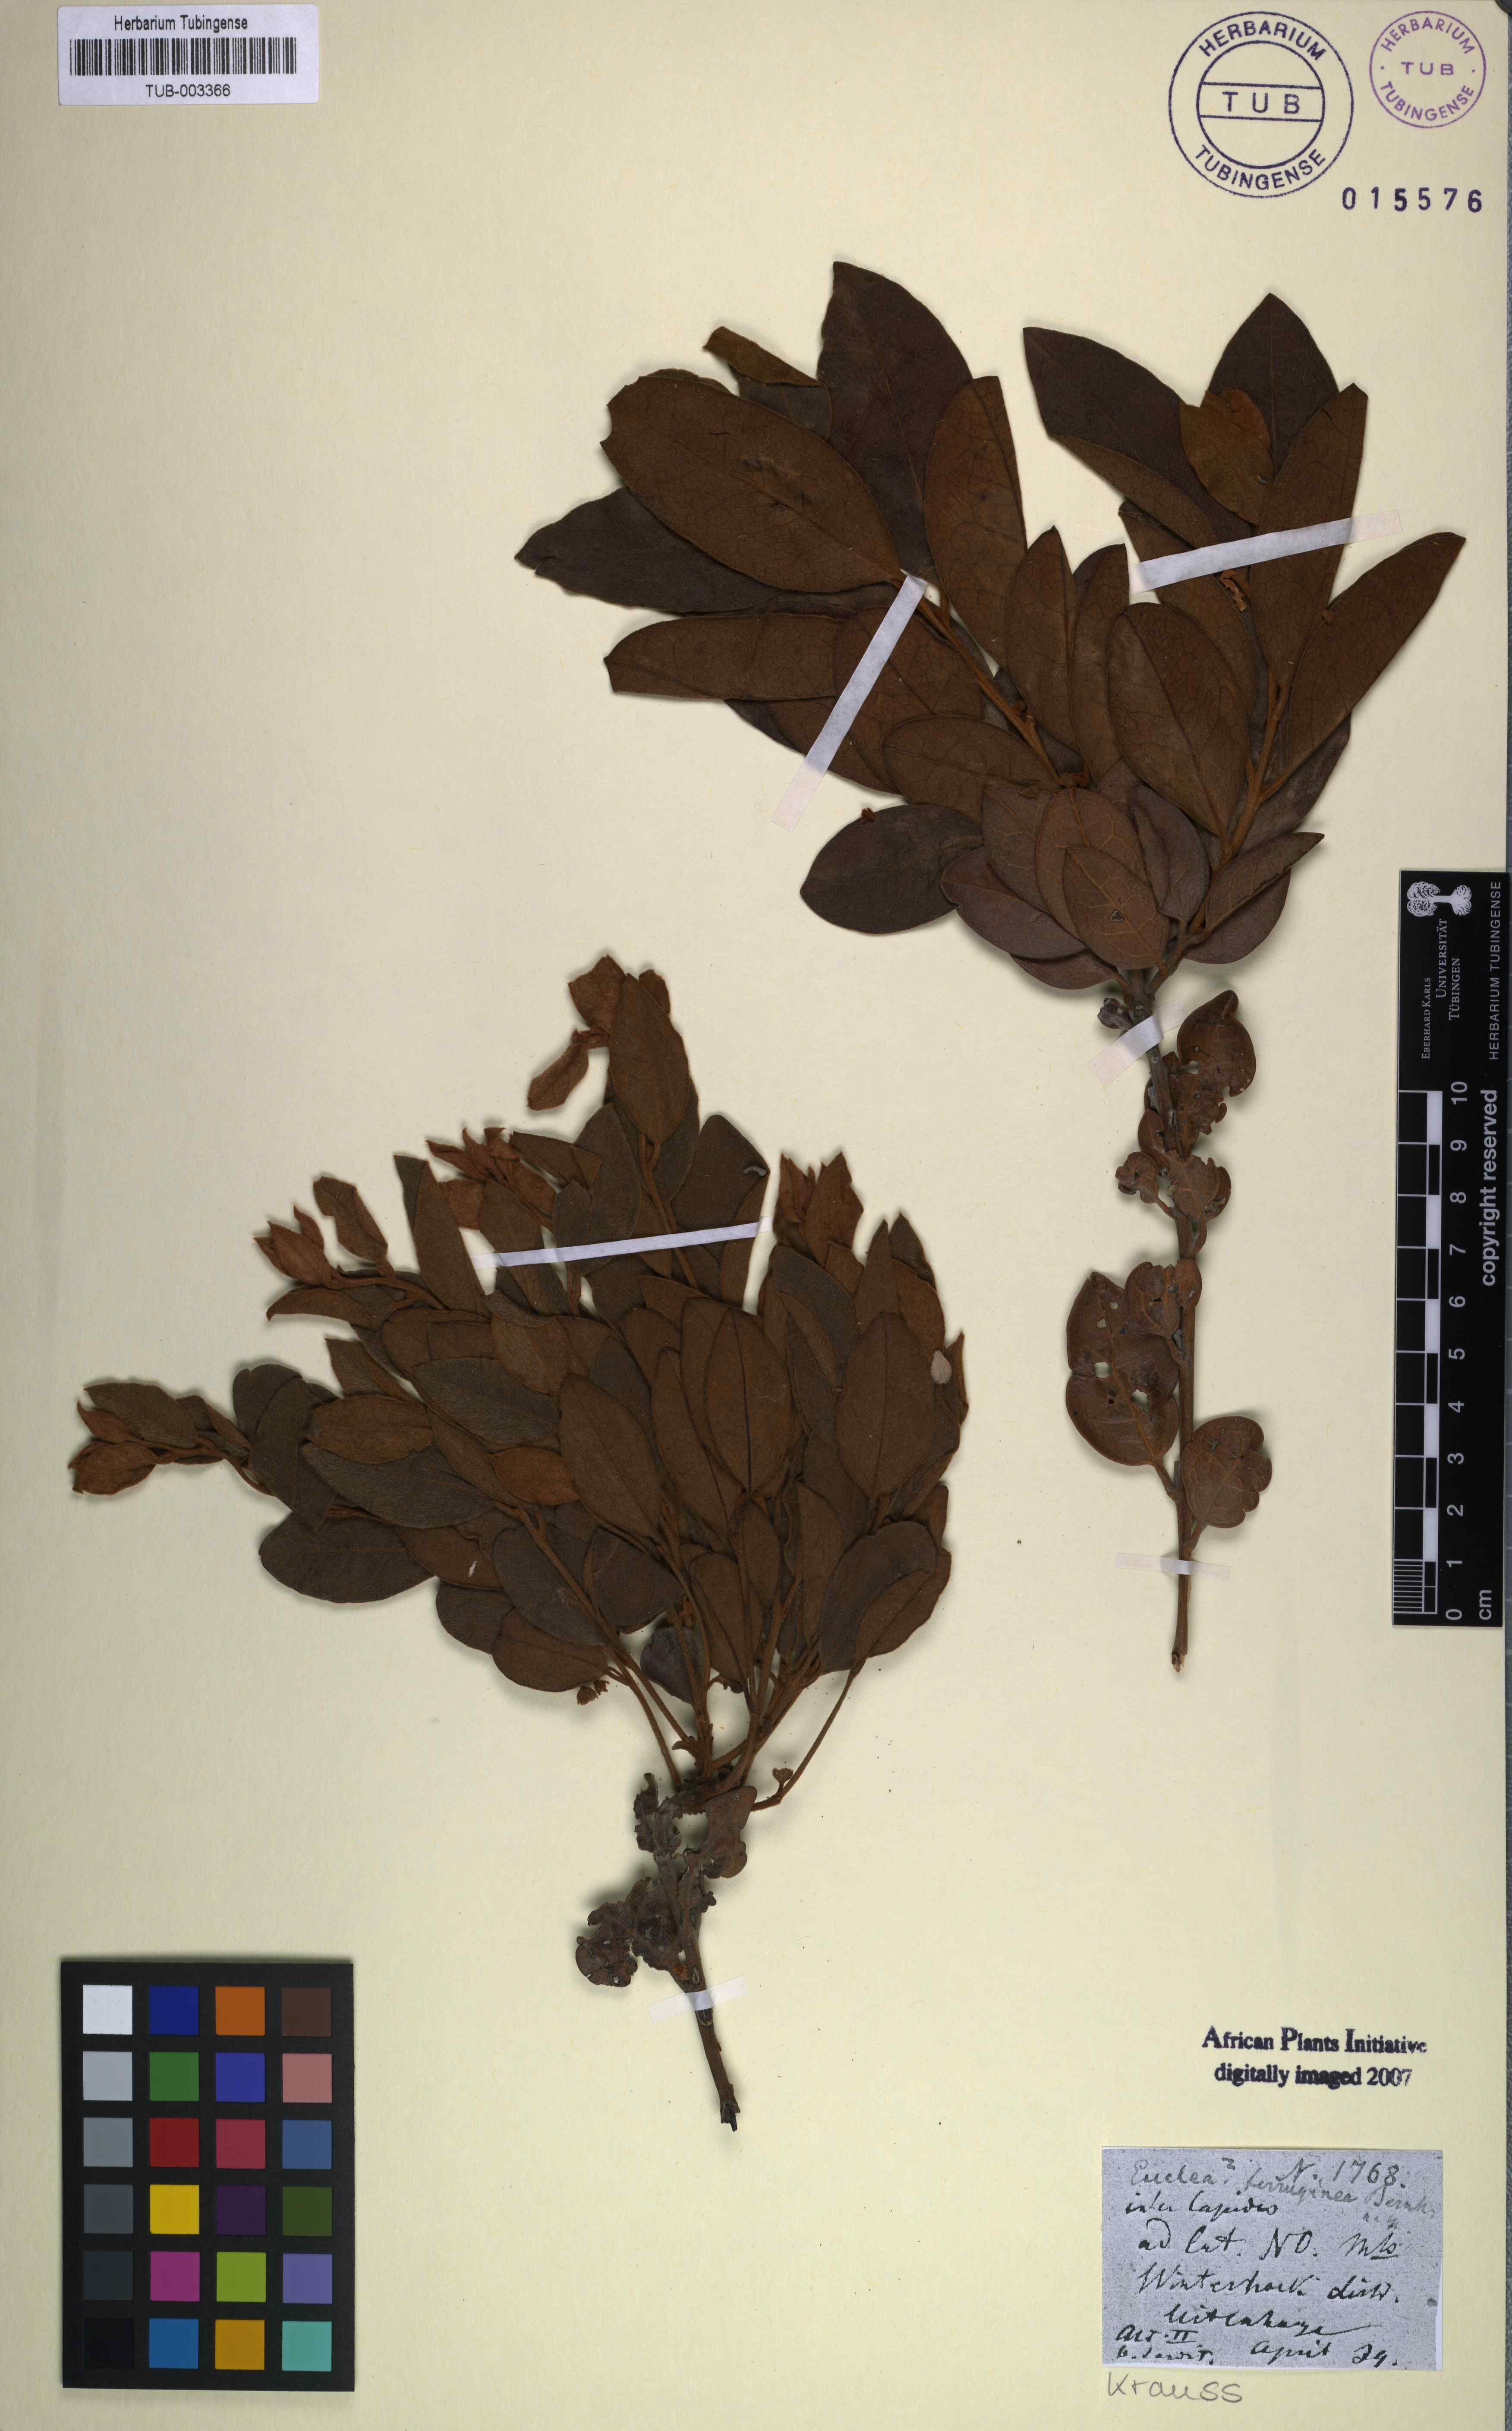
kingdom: Plantae
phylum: Tracheophyta
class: Magnoliopsida
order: Ericales
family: Ebenaceae
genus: Euclea
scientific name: Euclea polyandra
